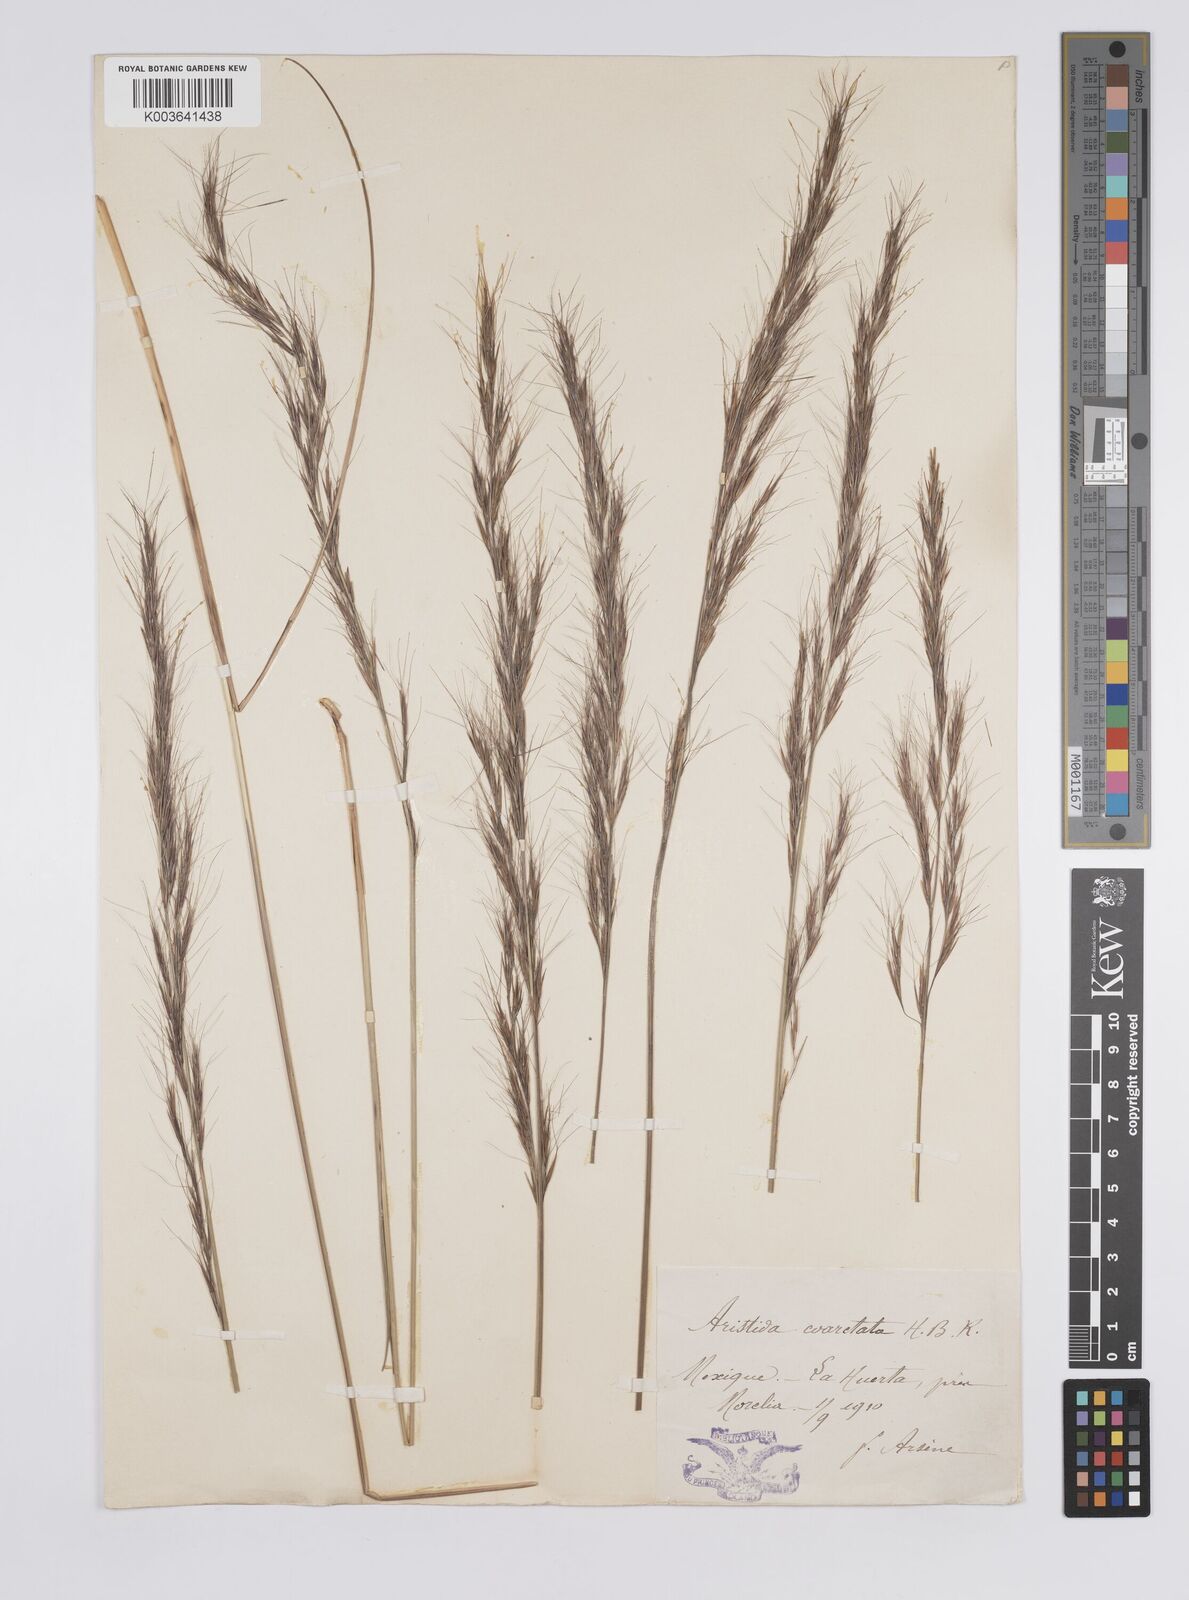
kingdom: Plantae
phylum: Tracheophyta
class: Liliopsida
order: Poales
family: Poaceae
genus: Aristida
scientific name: Aristida adscensionis
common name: Sixweeks threeawn
